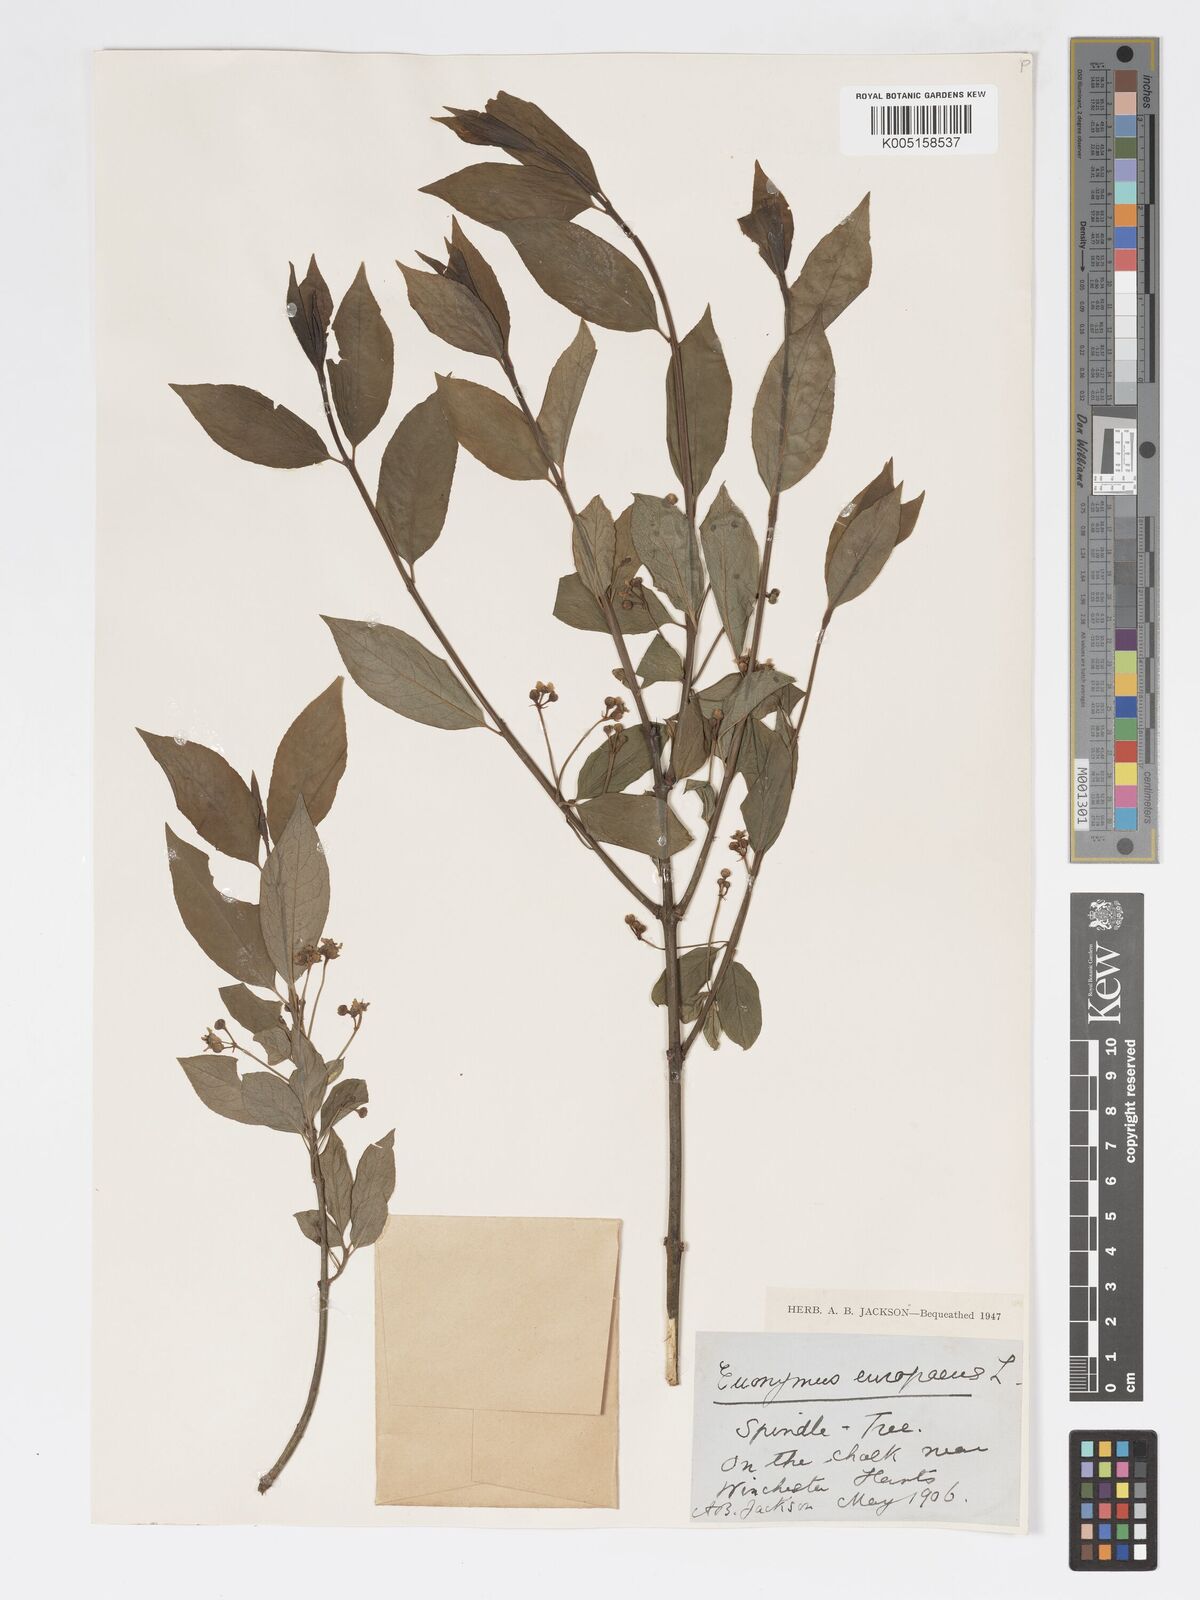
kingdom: Plantae
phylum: Tracheophyta
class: Magnoliopsida
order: Celastrales
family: Celastraceae
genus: Euonymus
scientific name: Euonymus
